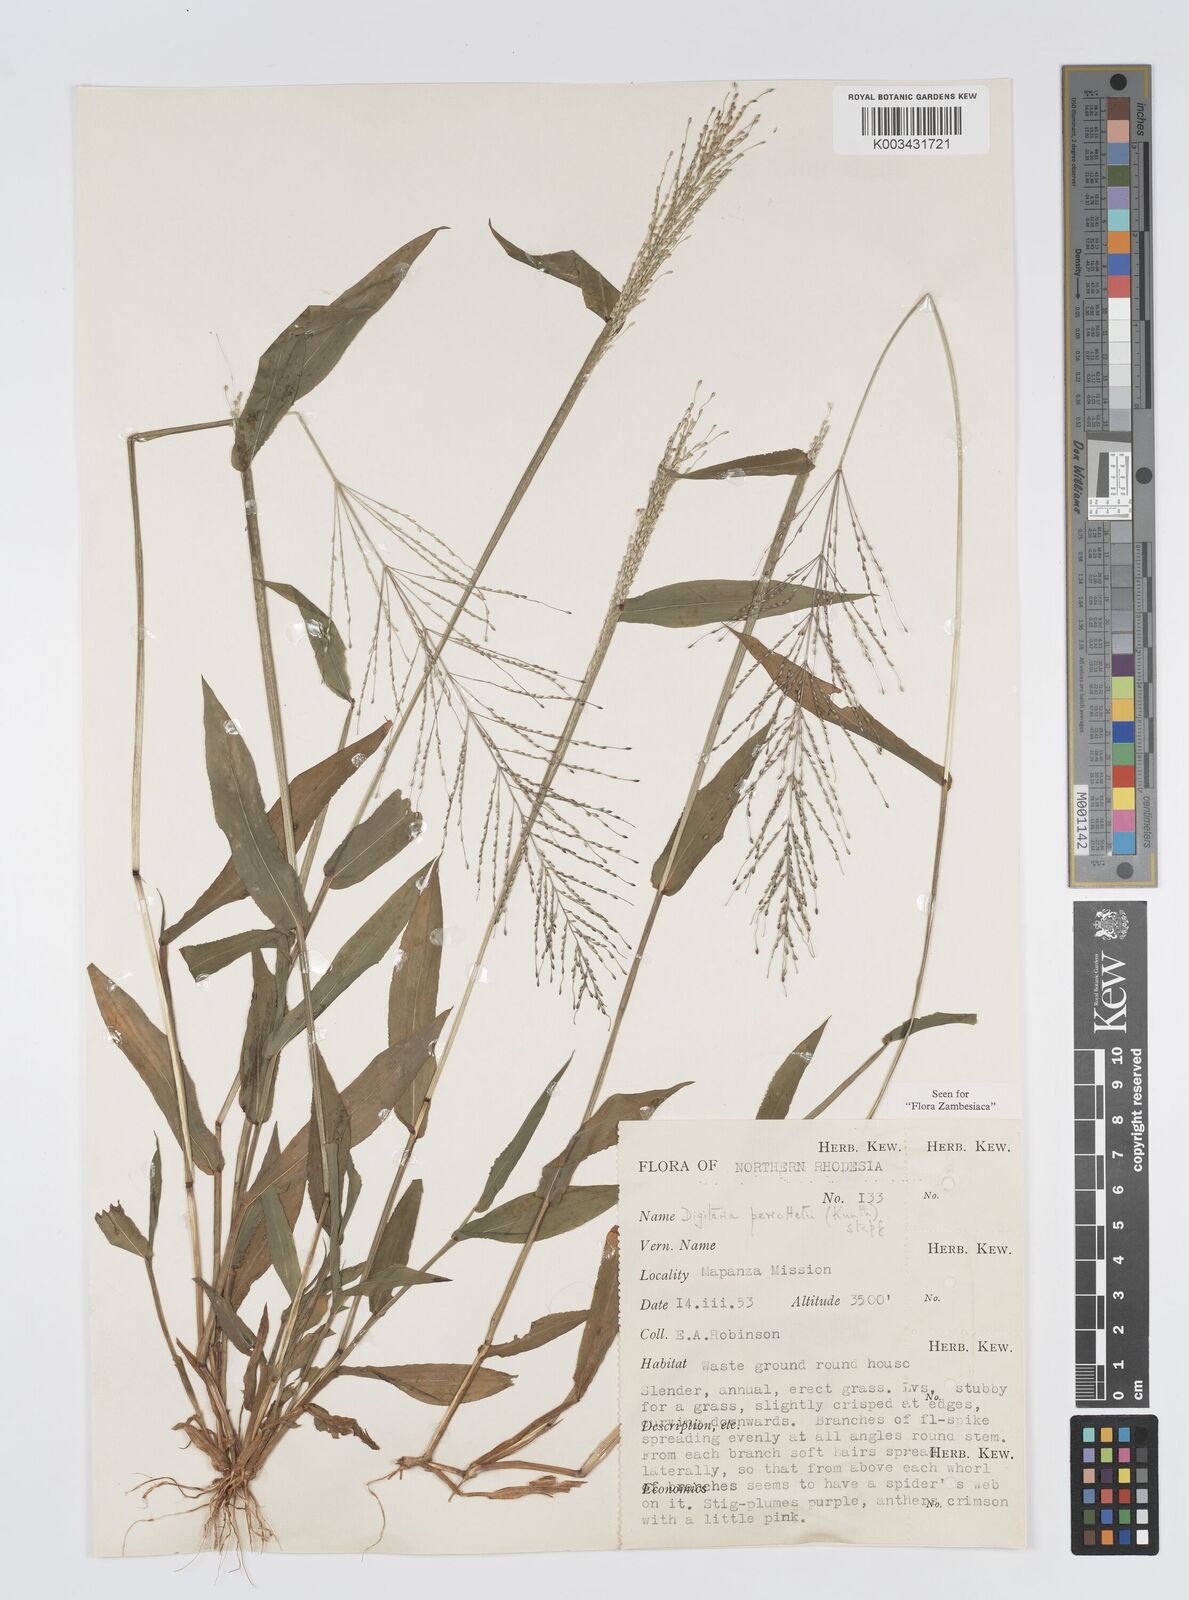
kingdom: Plantae
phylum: Tracheophyta
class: Liliopsida
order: Poales
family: Poaceae
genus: Digitaria
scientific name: Digitaria perrottetii
